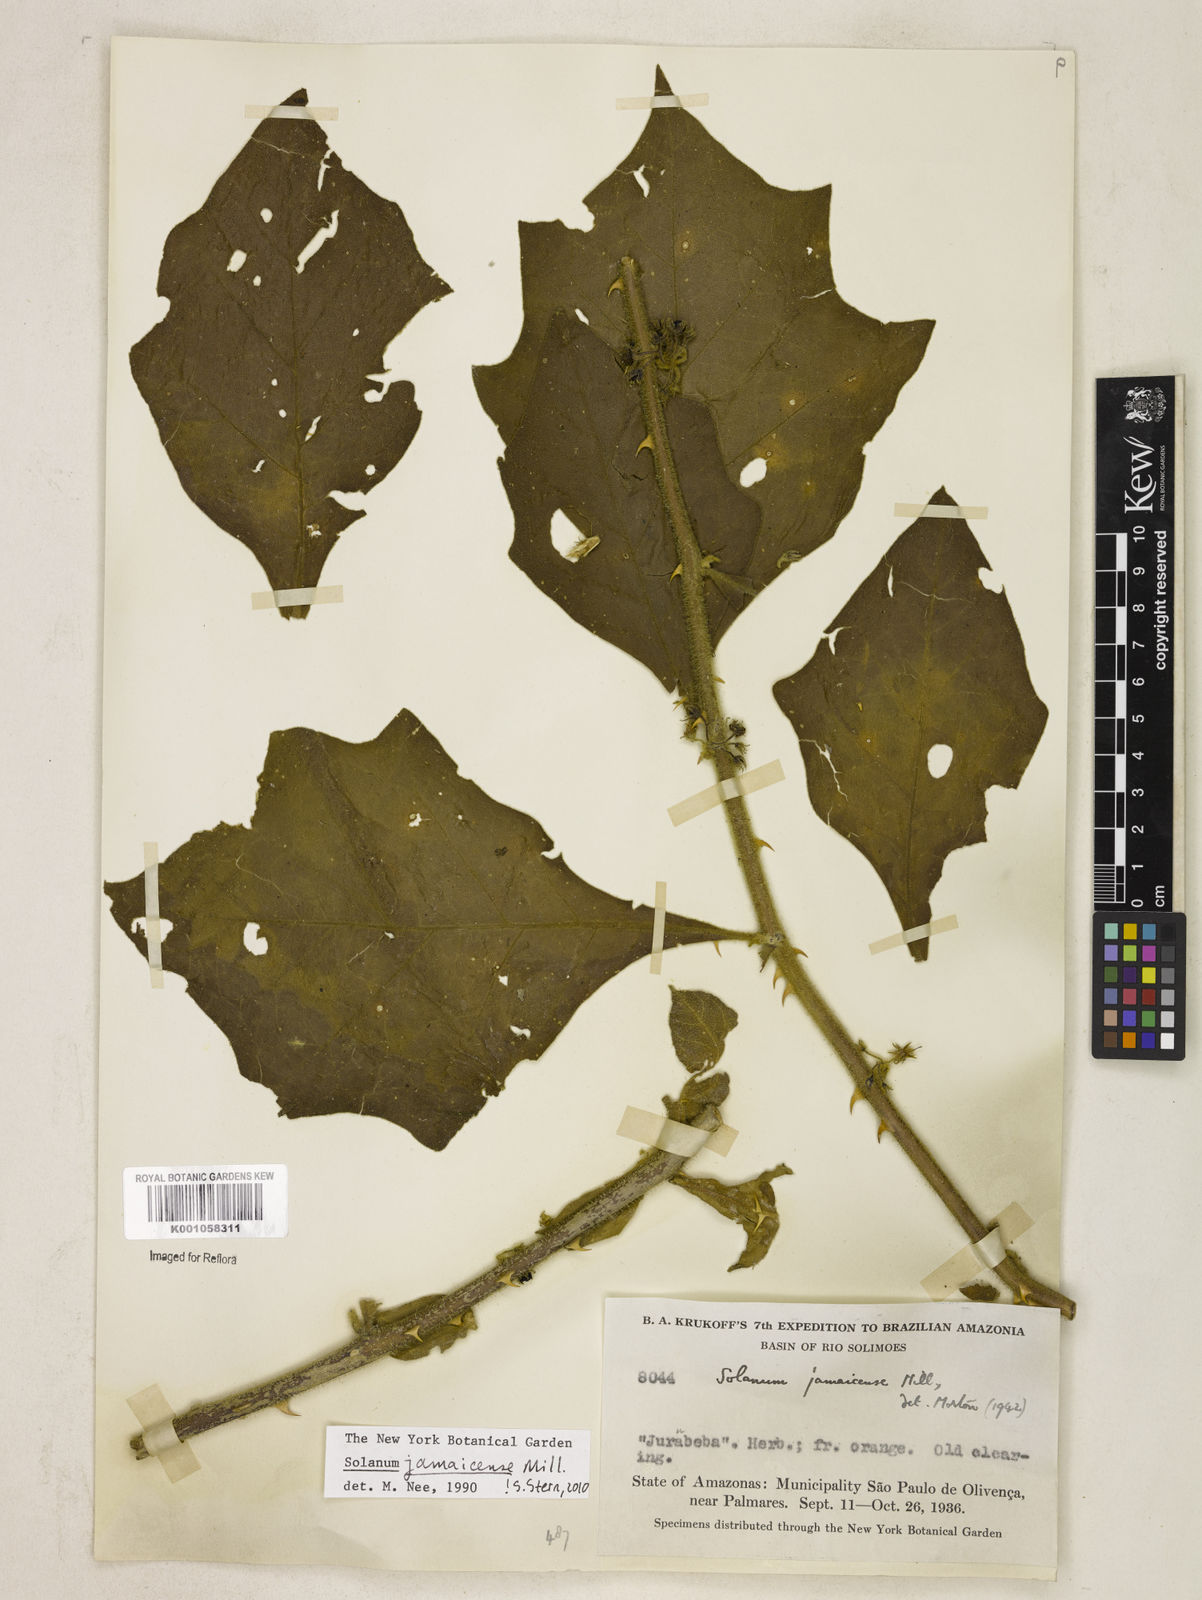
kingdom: Plantae
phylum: Tracheophyta
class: Magnoliopsida
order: Solanales
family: Solanaceae
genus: Solanum
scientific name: Solanum jamaicense
